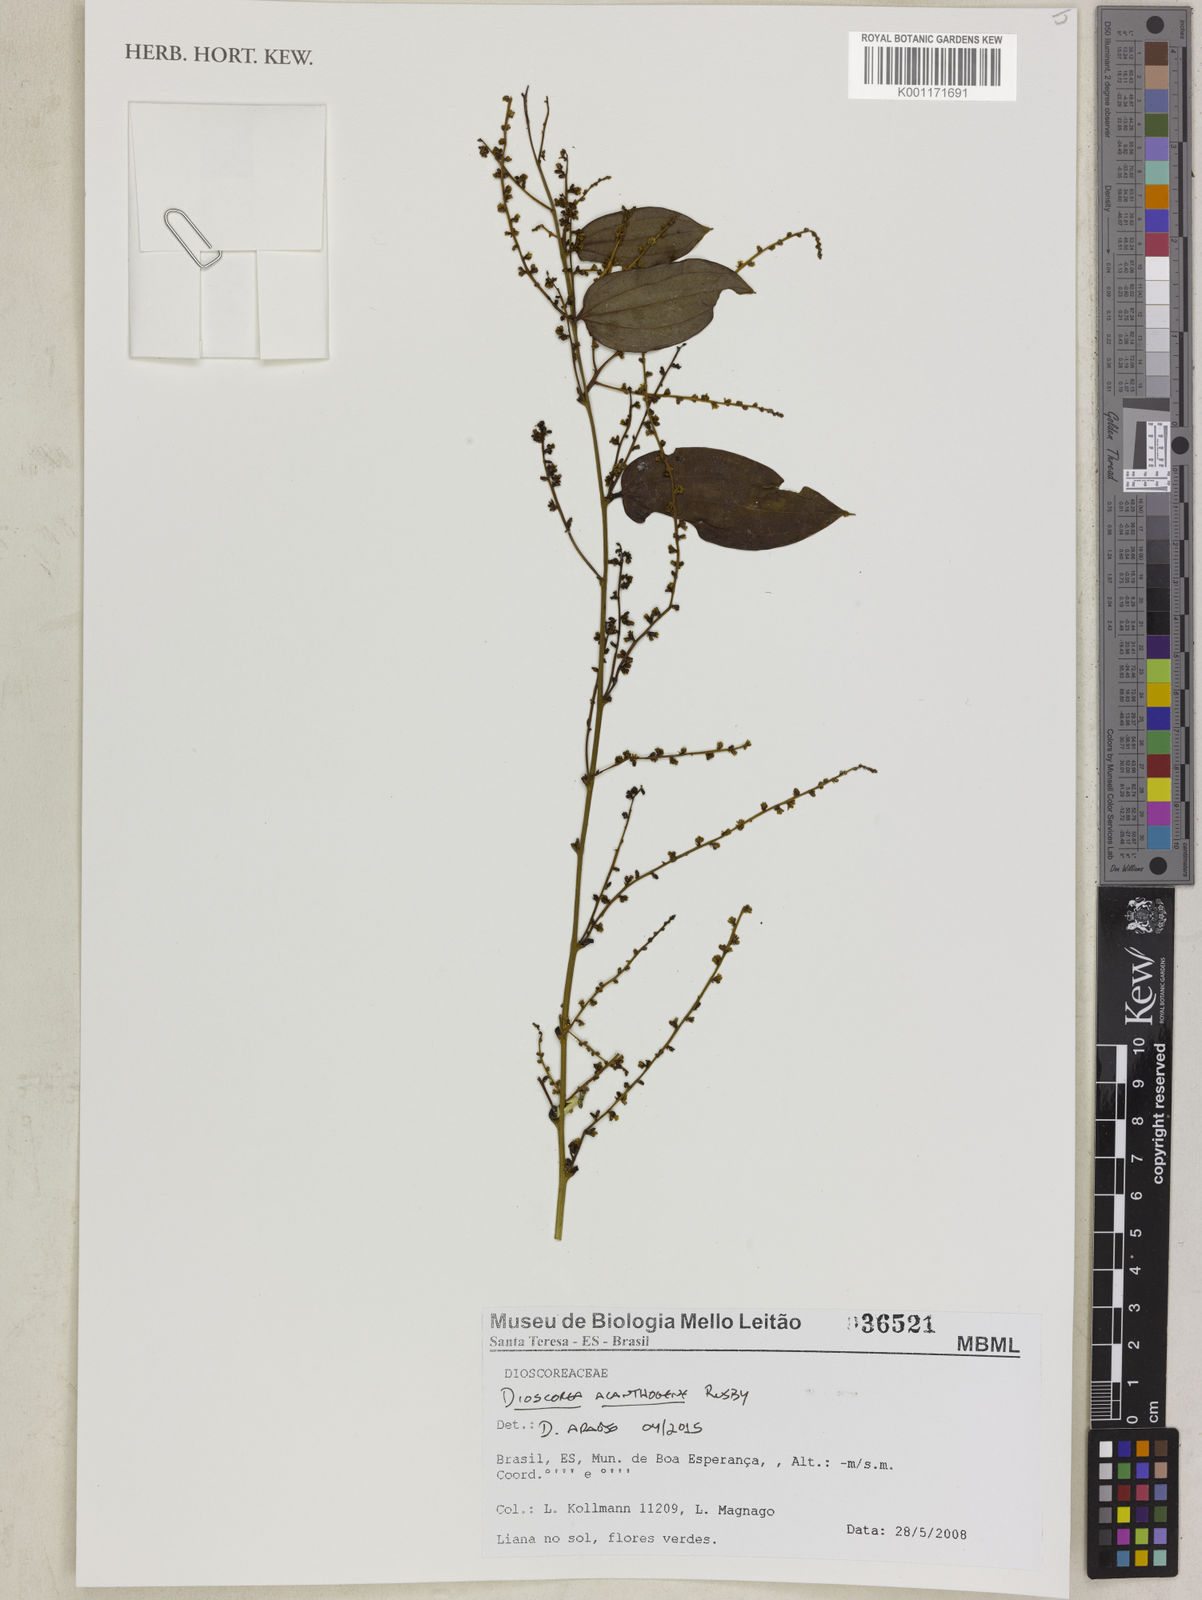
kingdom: Plantae
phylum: Tracheophyta
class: Liliopsida
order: Dioscoreales
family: Dioscoreaceae
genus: Dioscorea
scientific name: Dioscorea acanthogene
